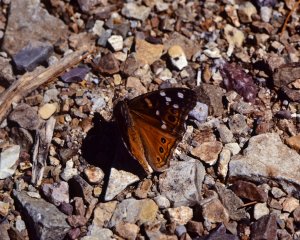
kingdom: Animalia
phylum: Arthropoda
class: Insecta
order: Lepidoptera
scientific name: Lepidoptera
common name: Butterflies
